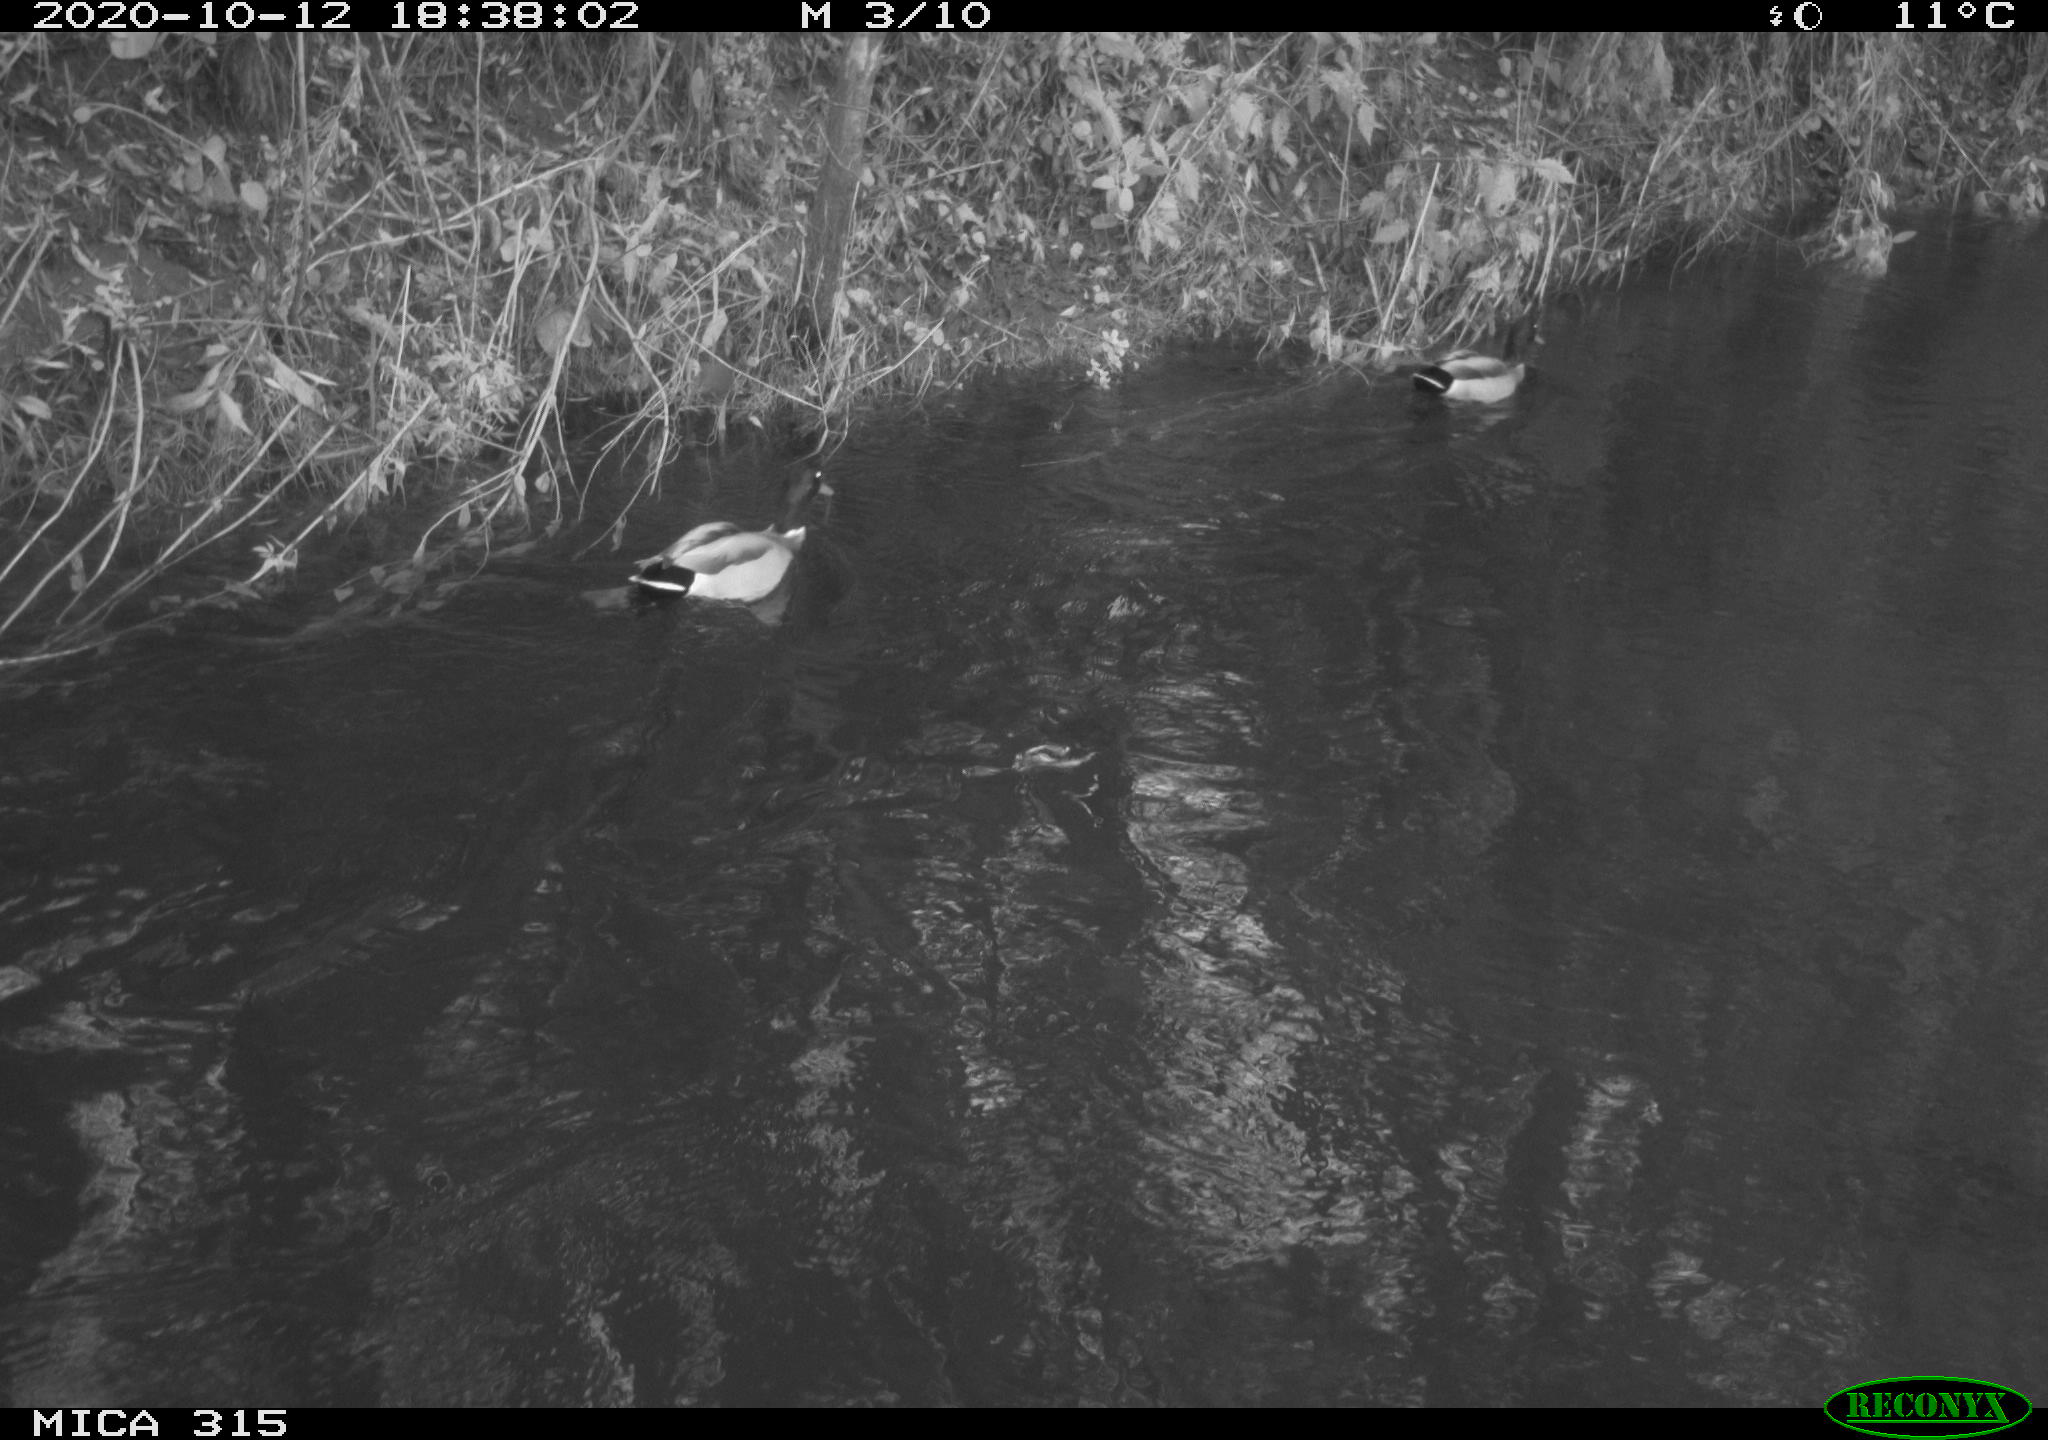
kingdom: Animalia
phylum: Chordata
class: Aves
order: Anseriformes
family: Anatidae
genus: Anas
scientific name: Anas platyrhynchos
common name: Mallard
